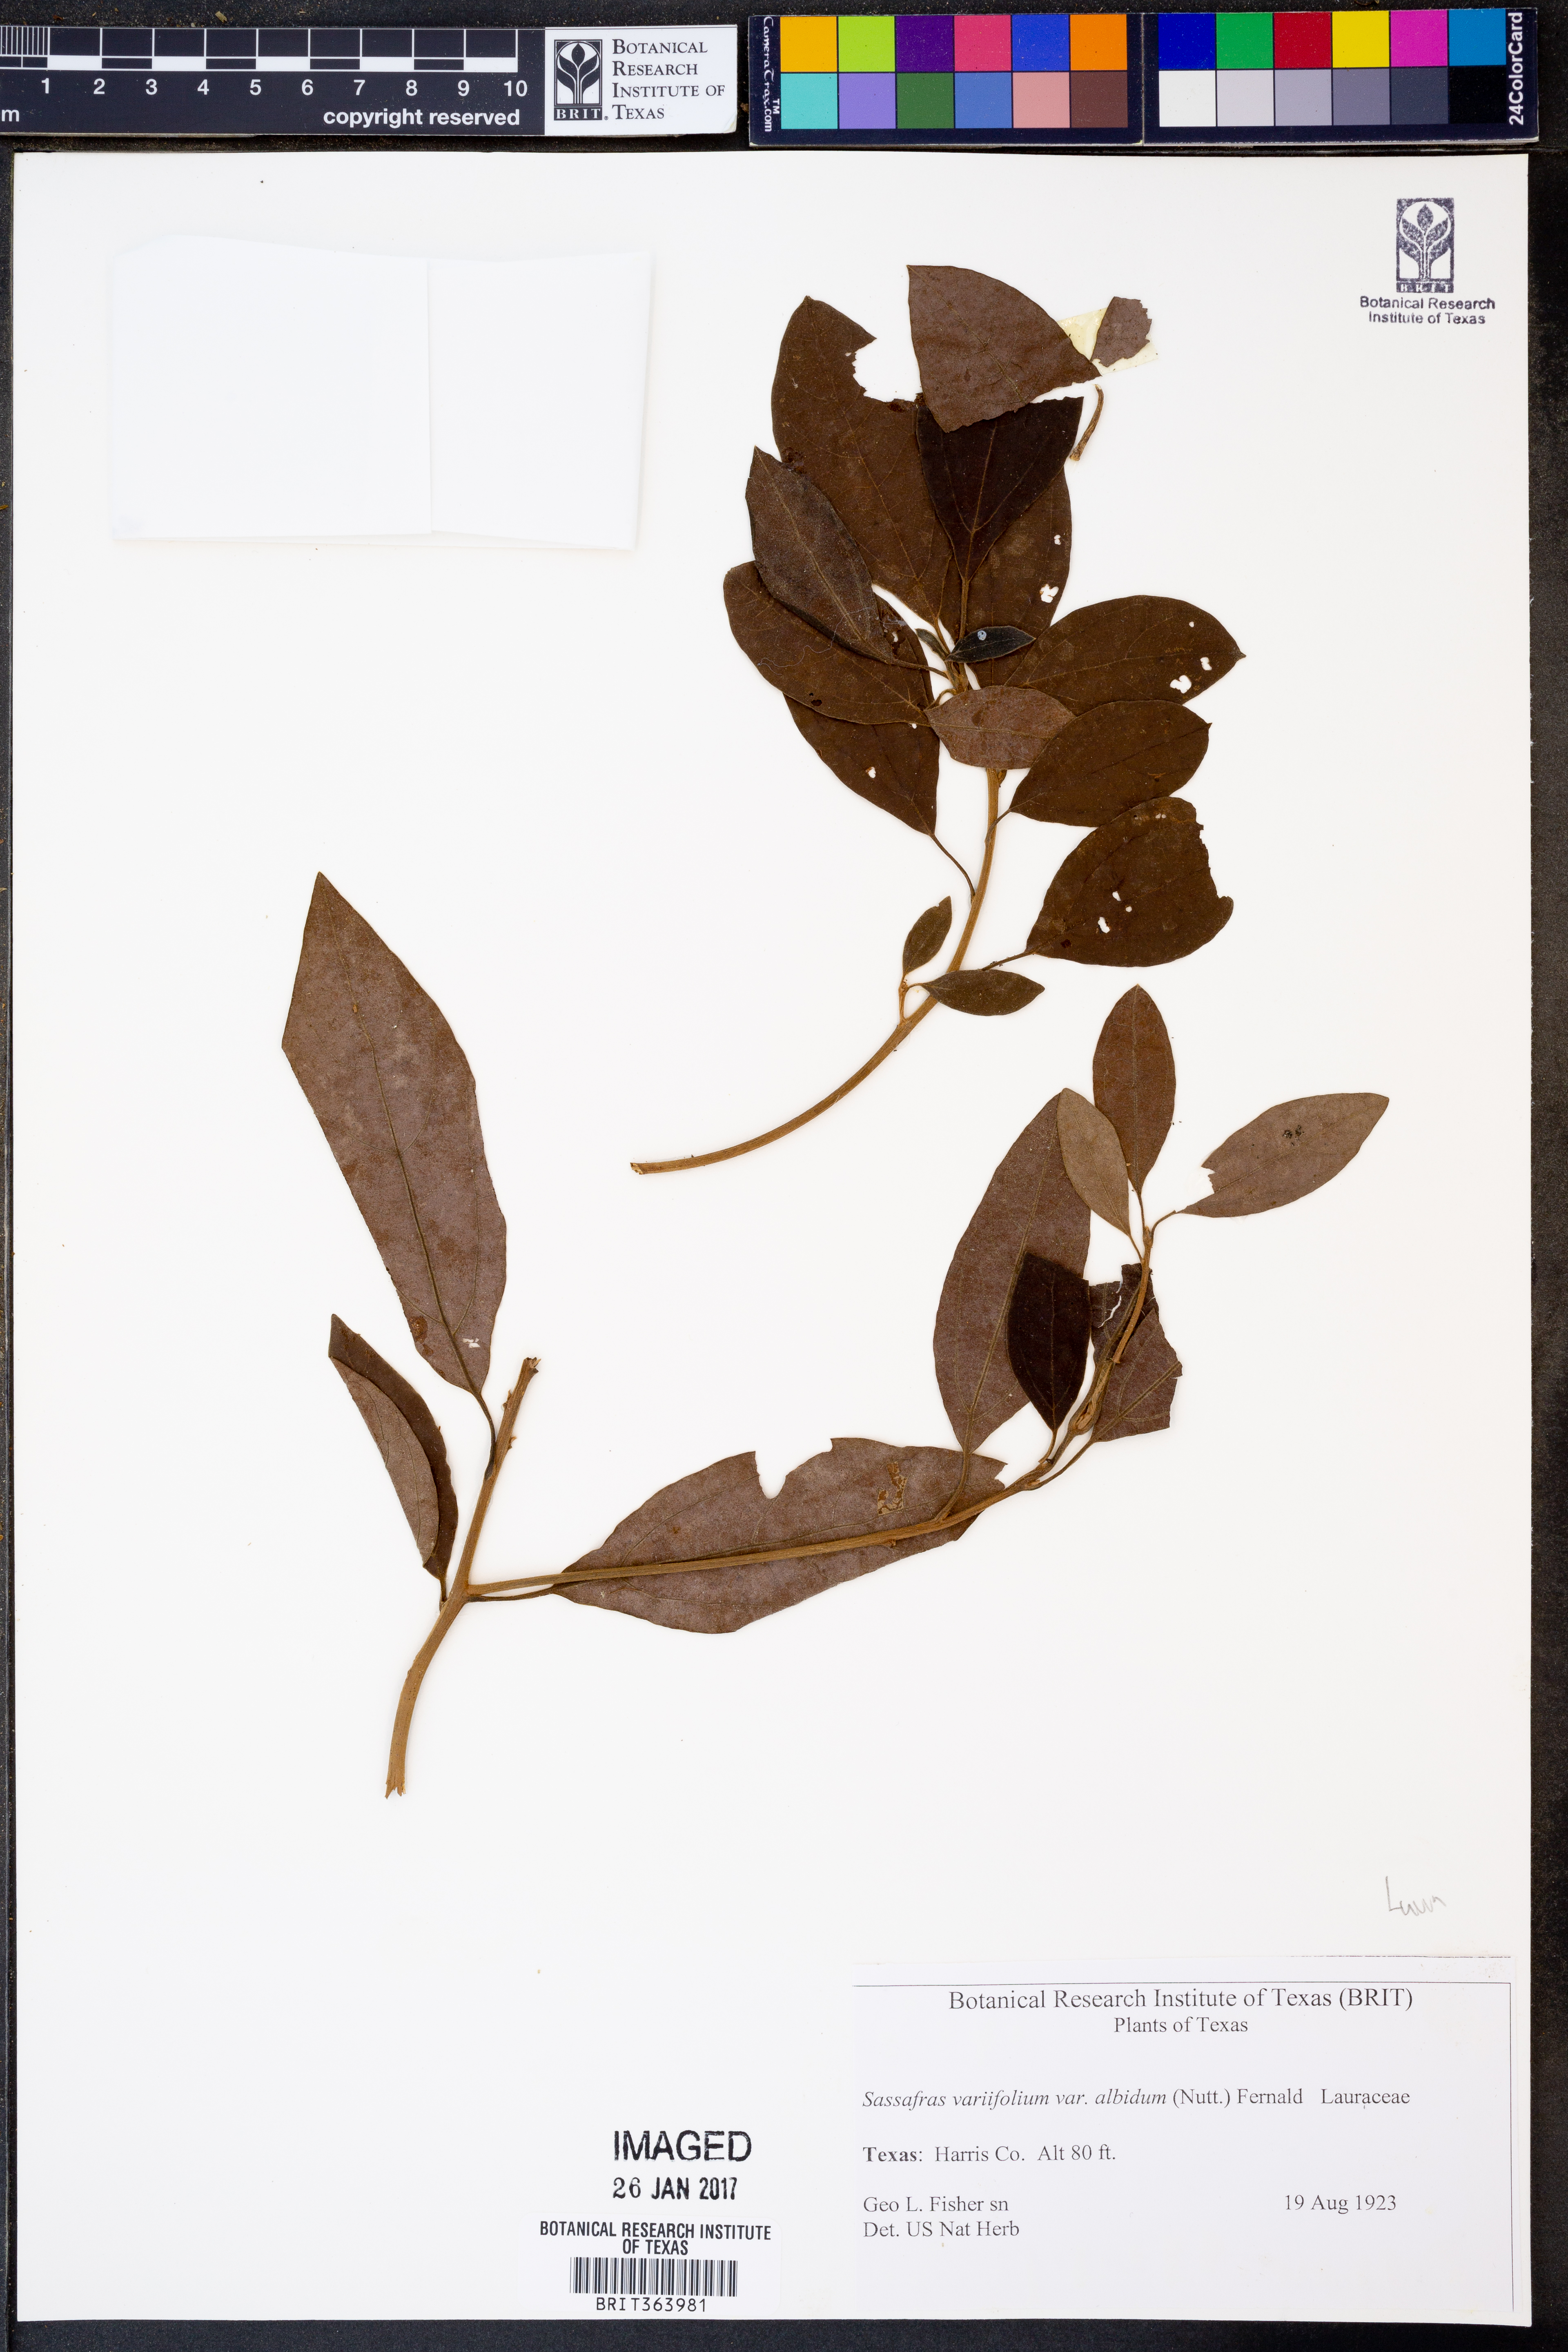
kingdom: Plantae
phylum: Tracheophyta
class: Magnoliopsida
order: Laurales
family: Lauraceae
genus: Sassafras
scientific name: Sassafras albidum
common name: Sassafras
